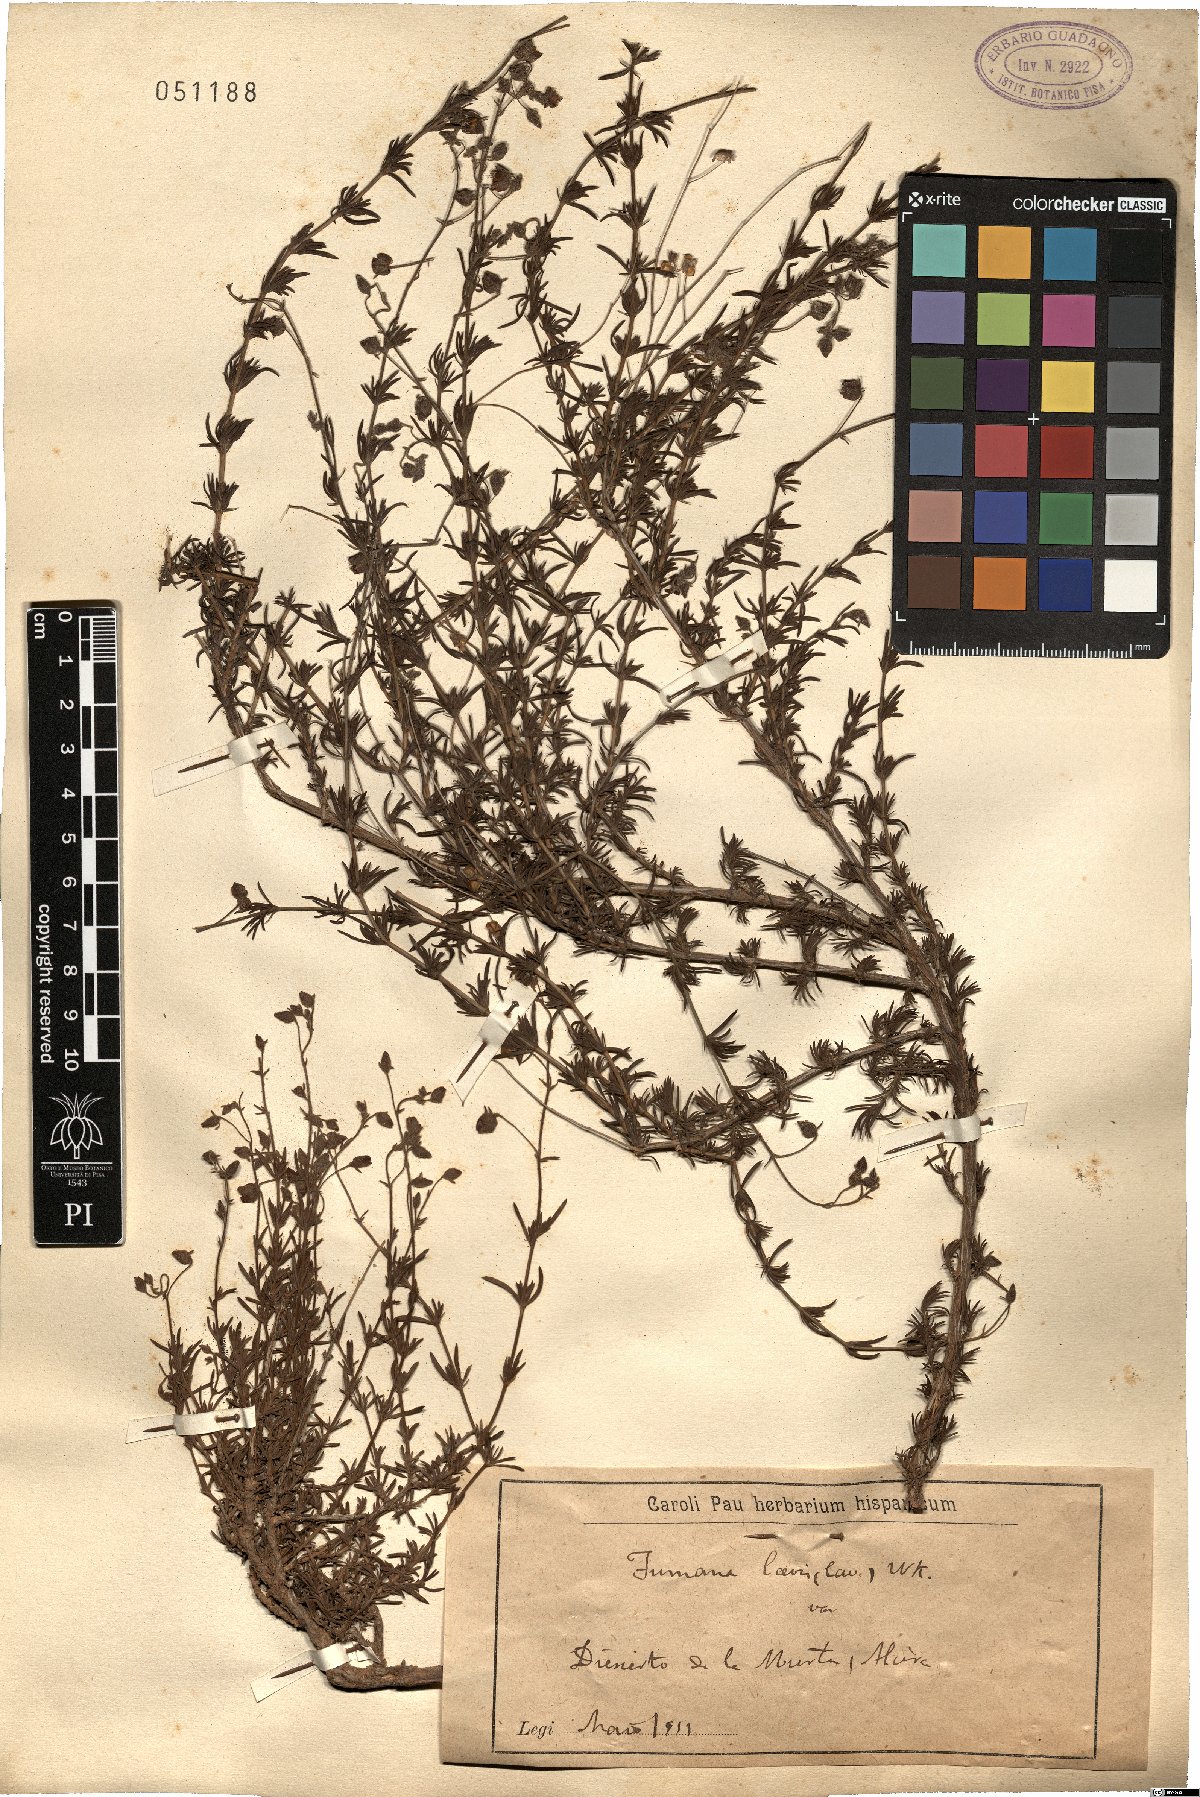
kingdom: Plantae
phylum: Tracheophyta
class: Magnoliopsida
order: Malvales
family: Cistaceae
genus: Fumana
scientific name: Fumana laevis
